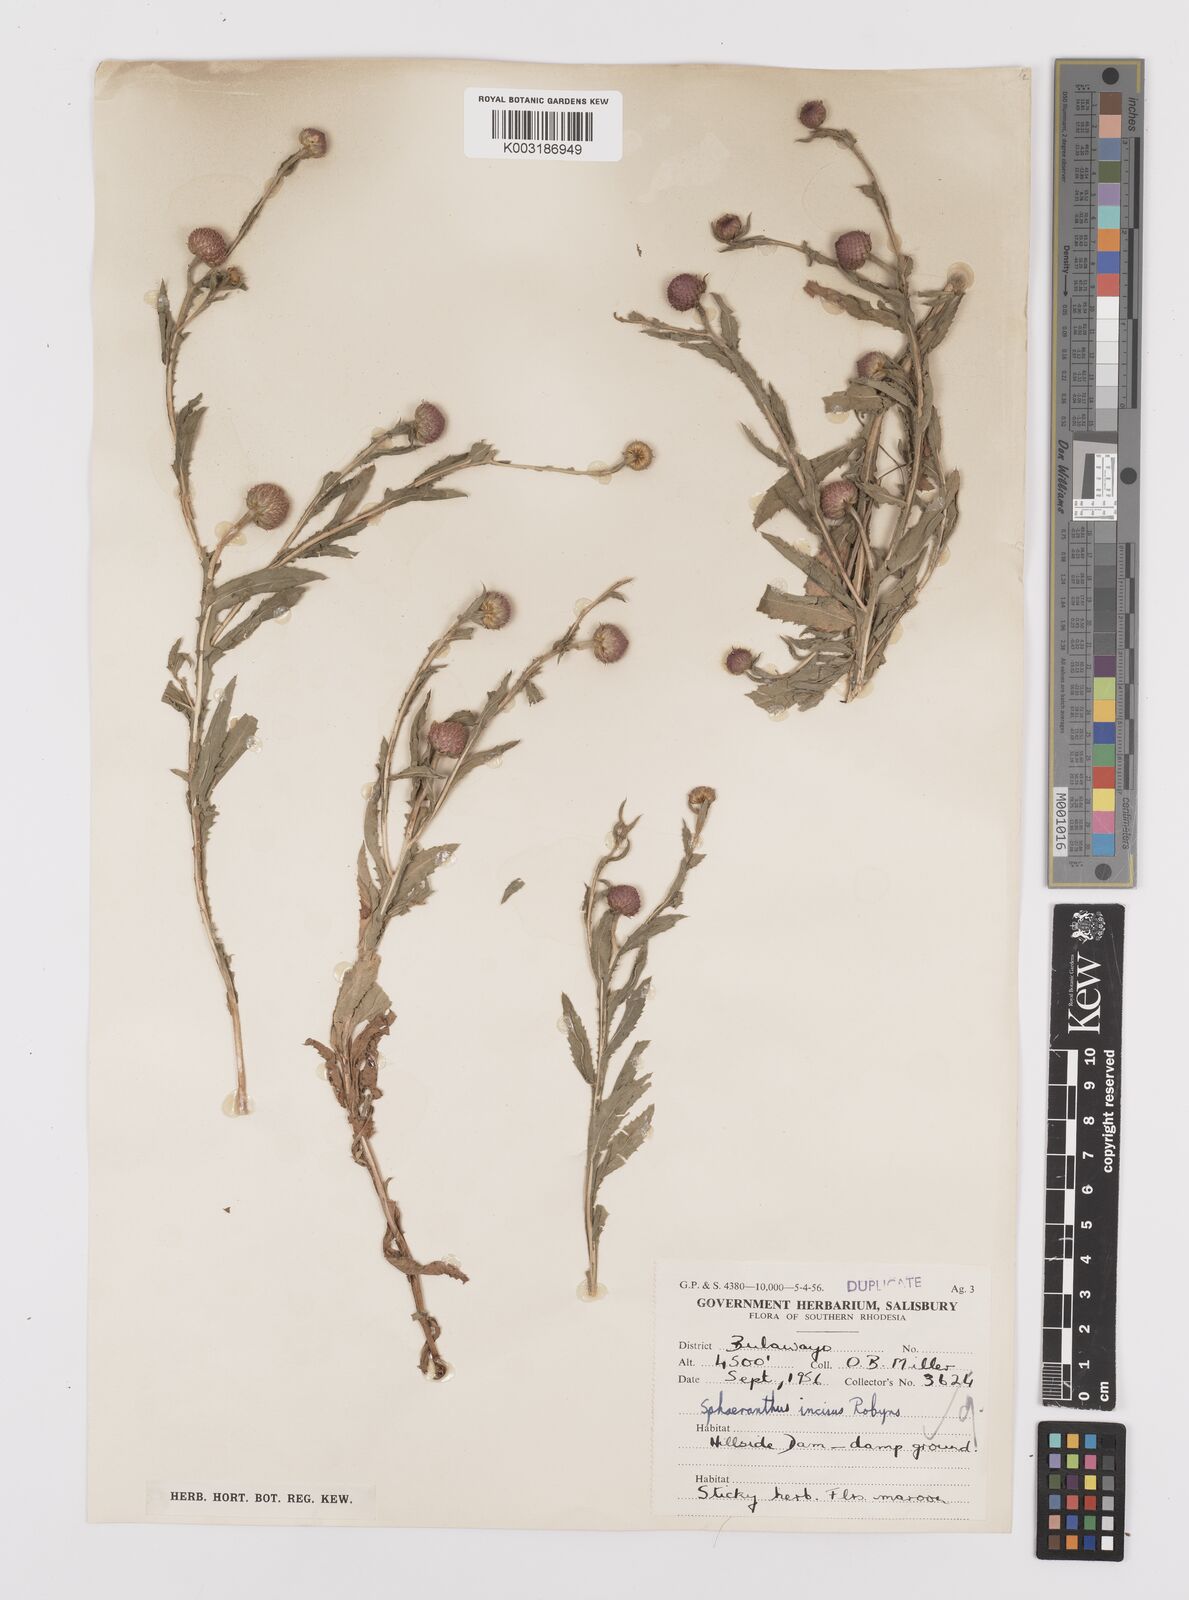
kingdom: Plantae
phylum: Tracheophyta
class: Magnoliopsida
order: Asterales
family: Asteraceae
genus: Sphaeranthus
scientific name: Sphaeranthus peduncularis
